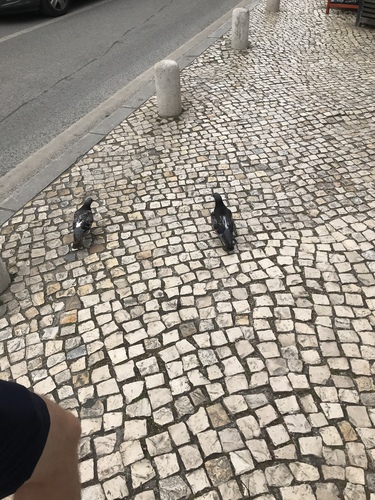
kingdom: Animalia
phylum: Chordata
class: Aves
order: Columbiformes
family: Columbidae
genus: Columba
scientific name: Columba livia
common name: Rock pigeon
